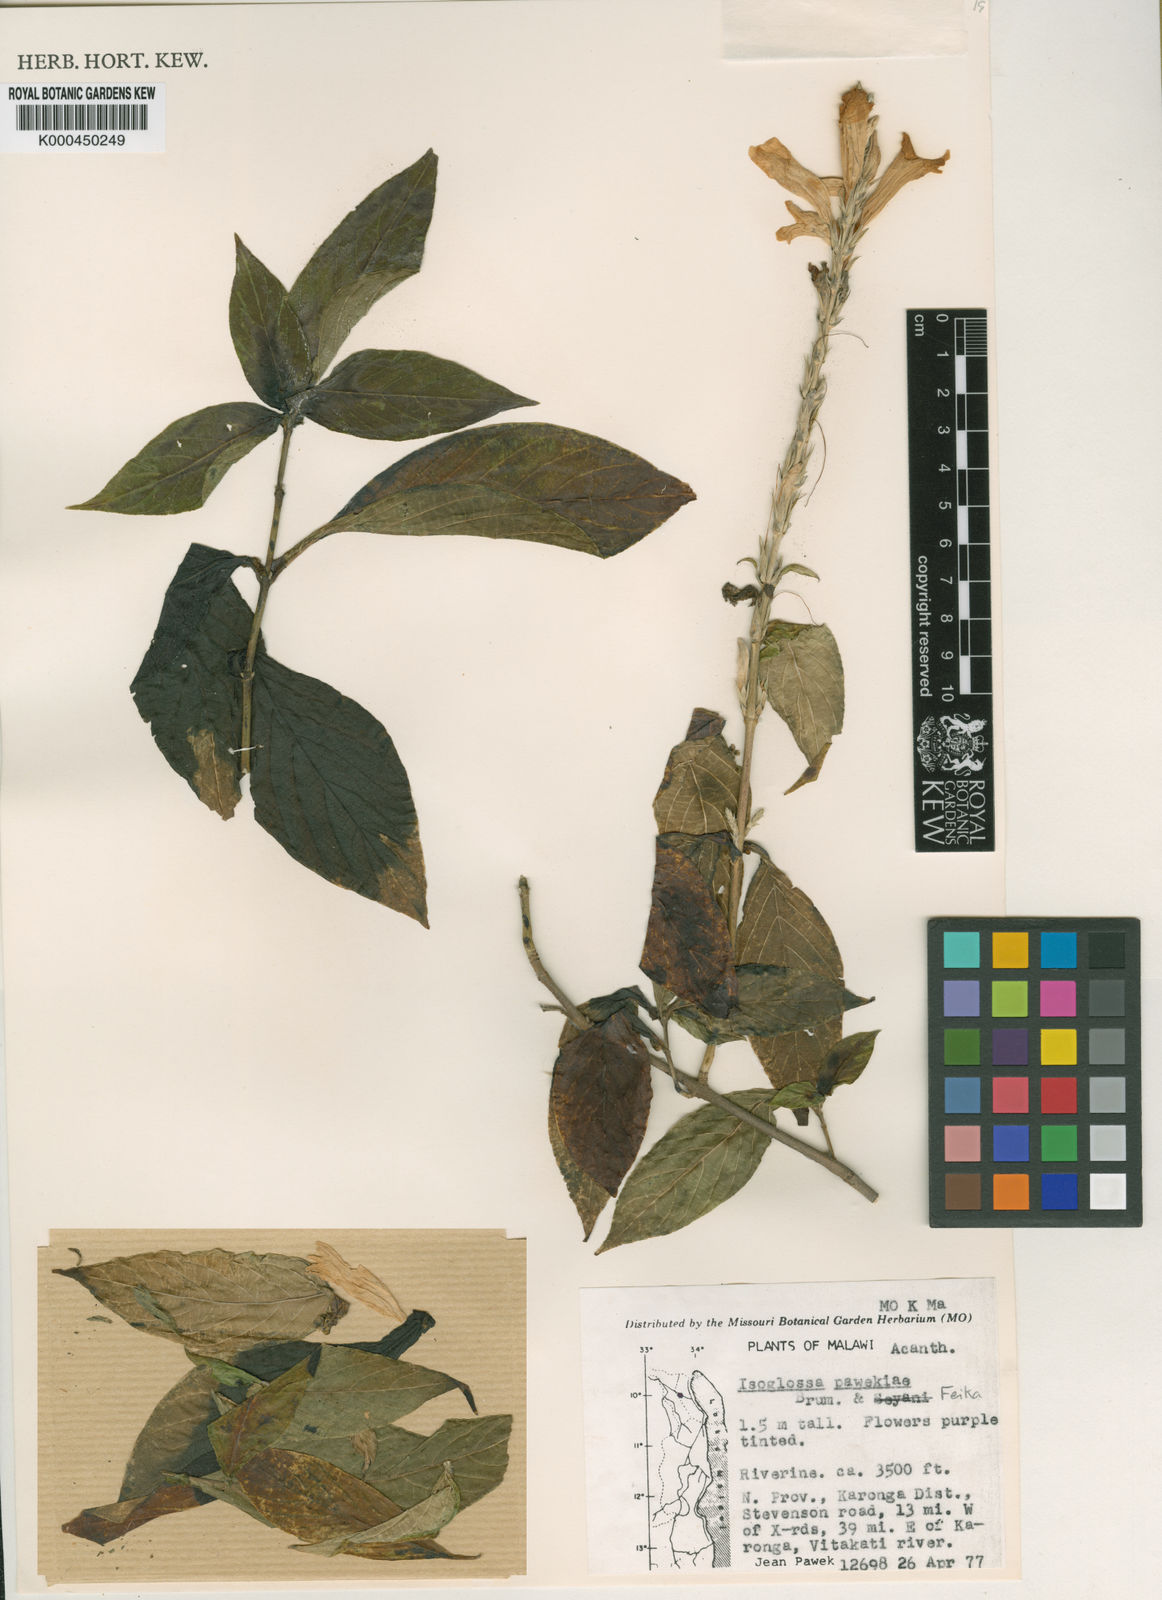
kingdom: Plantae
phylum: Tracheophyta
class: Magnoliopsida
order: Lamiales
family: Acanthaceae
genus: Isoglossa
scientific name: Isoglossa pawekiae
